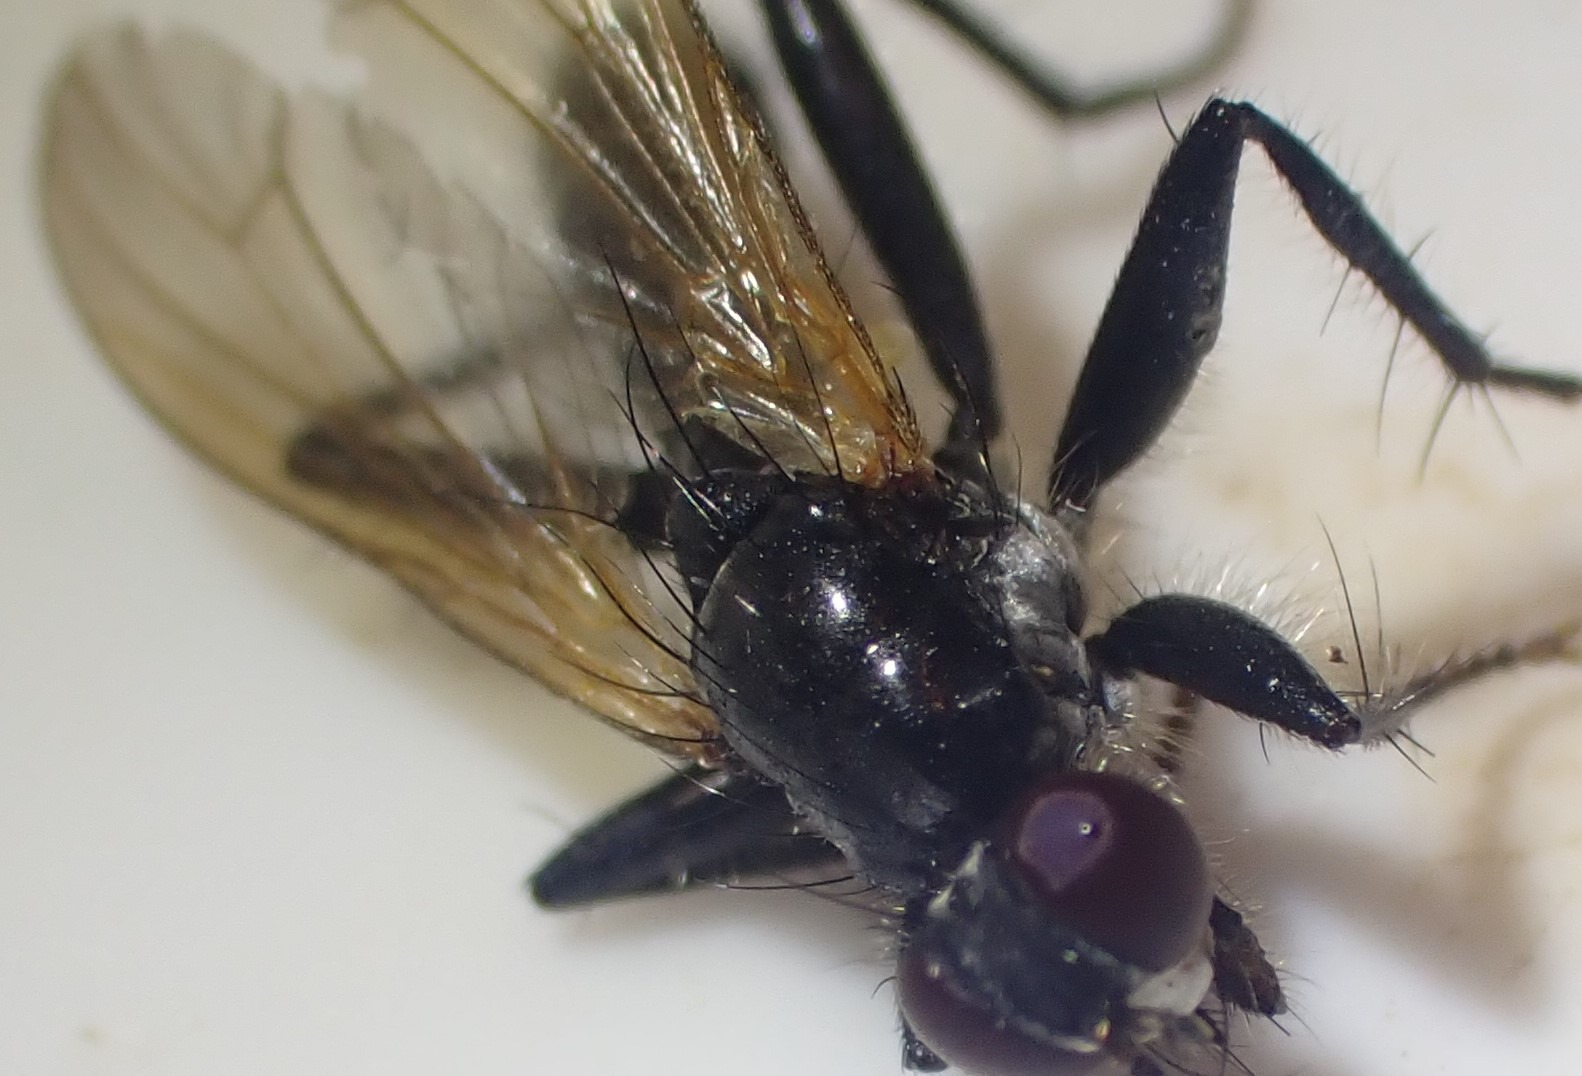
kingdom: Animalia
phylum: Arthropoda
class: Insecta
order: Diptera
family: Scathophagidae
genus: Cordilura
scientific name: Cordilura ciliata
